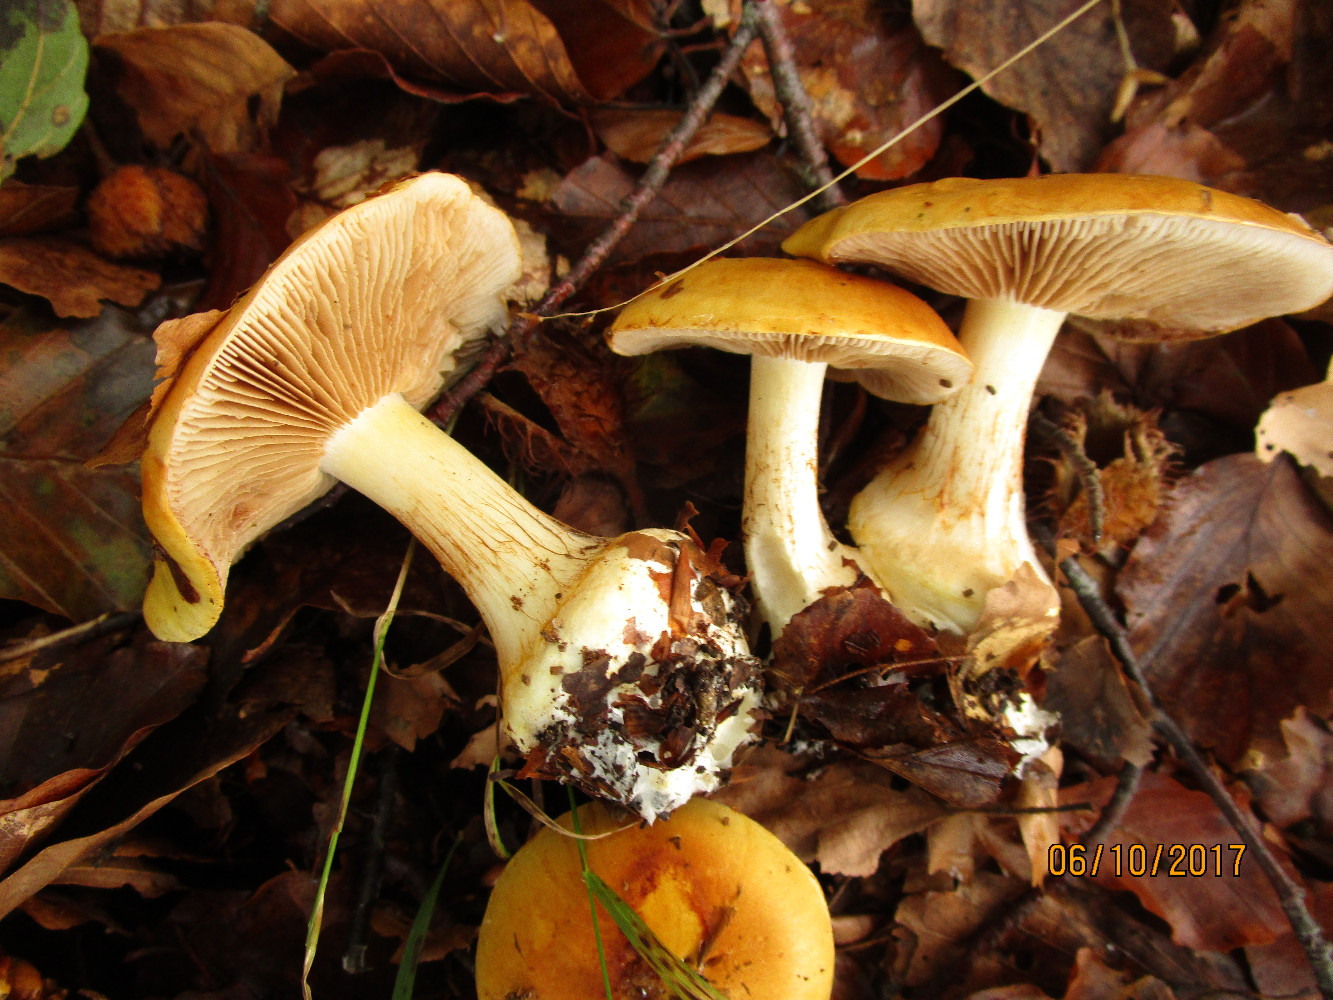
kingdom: Fungi
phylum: Basidiomycota
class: Agaricomycetes
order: Agaricales
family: Cortinariaceae
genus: Phlegmacium
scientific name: Phlegmacium rhizophorum
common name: finkornet slørhat
